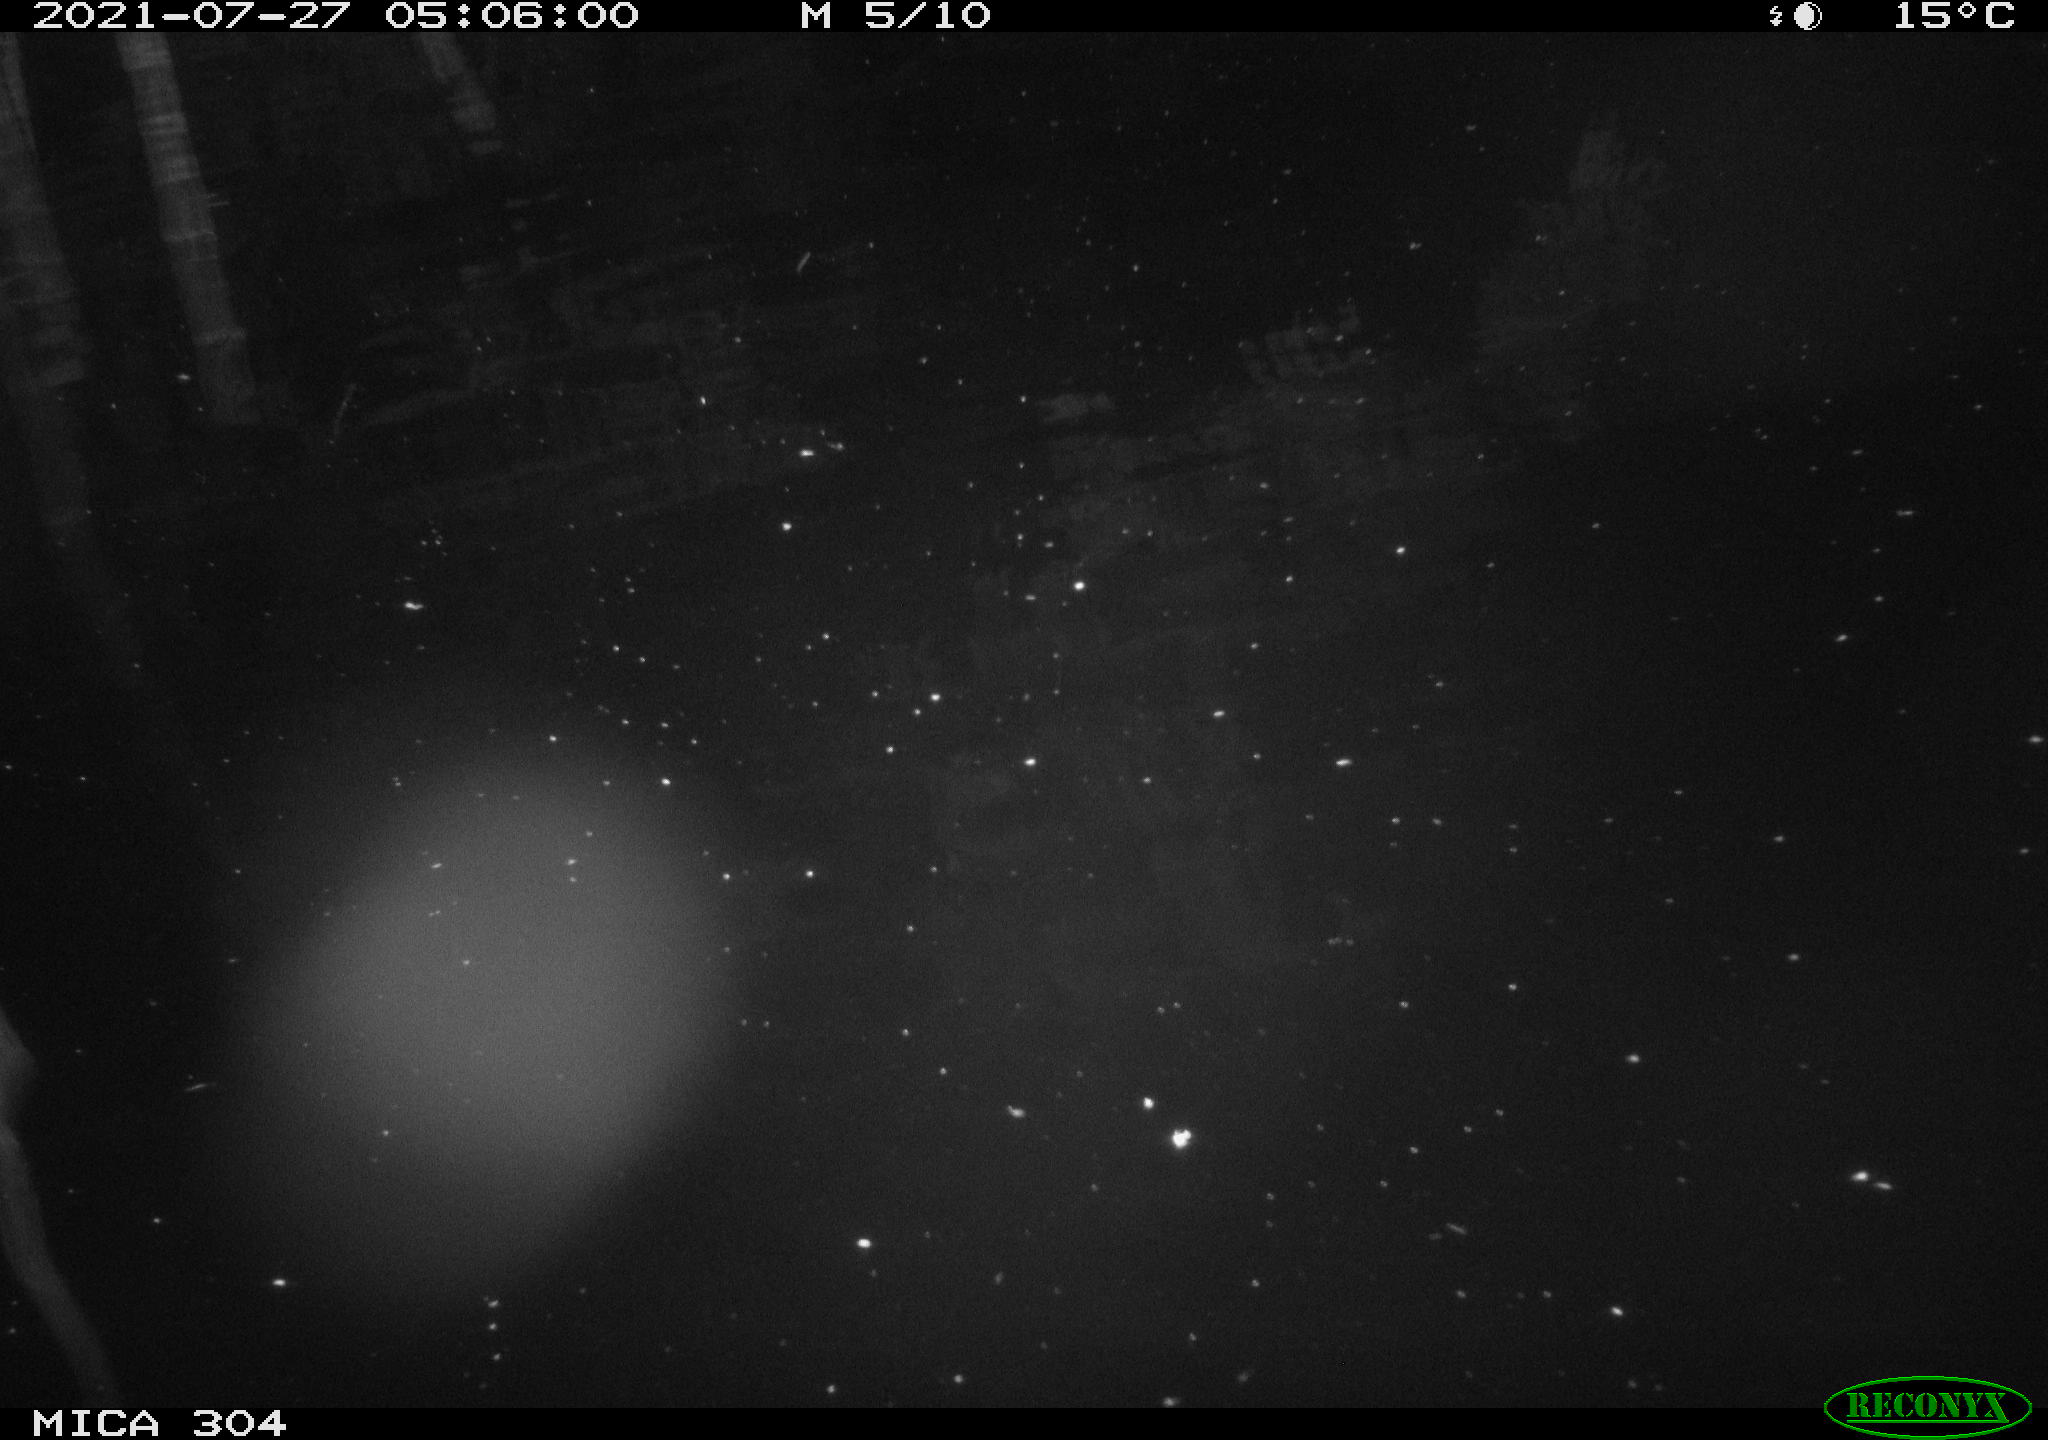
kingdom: Animalia
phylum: Chordata
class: Aves
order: Anseriformes
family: Anatidae
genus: Anas
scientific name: Anas platyrhynchos
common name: Mallard
